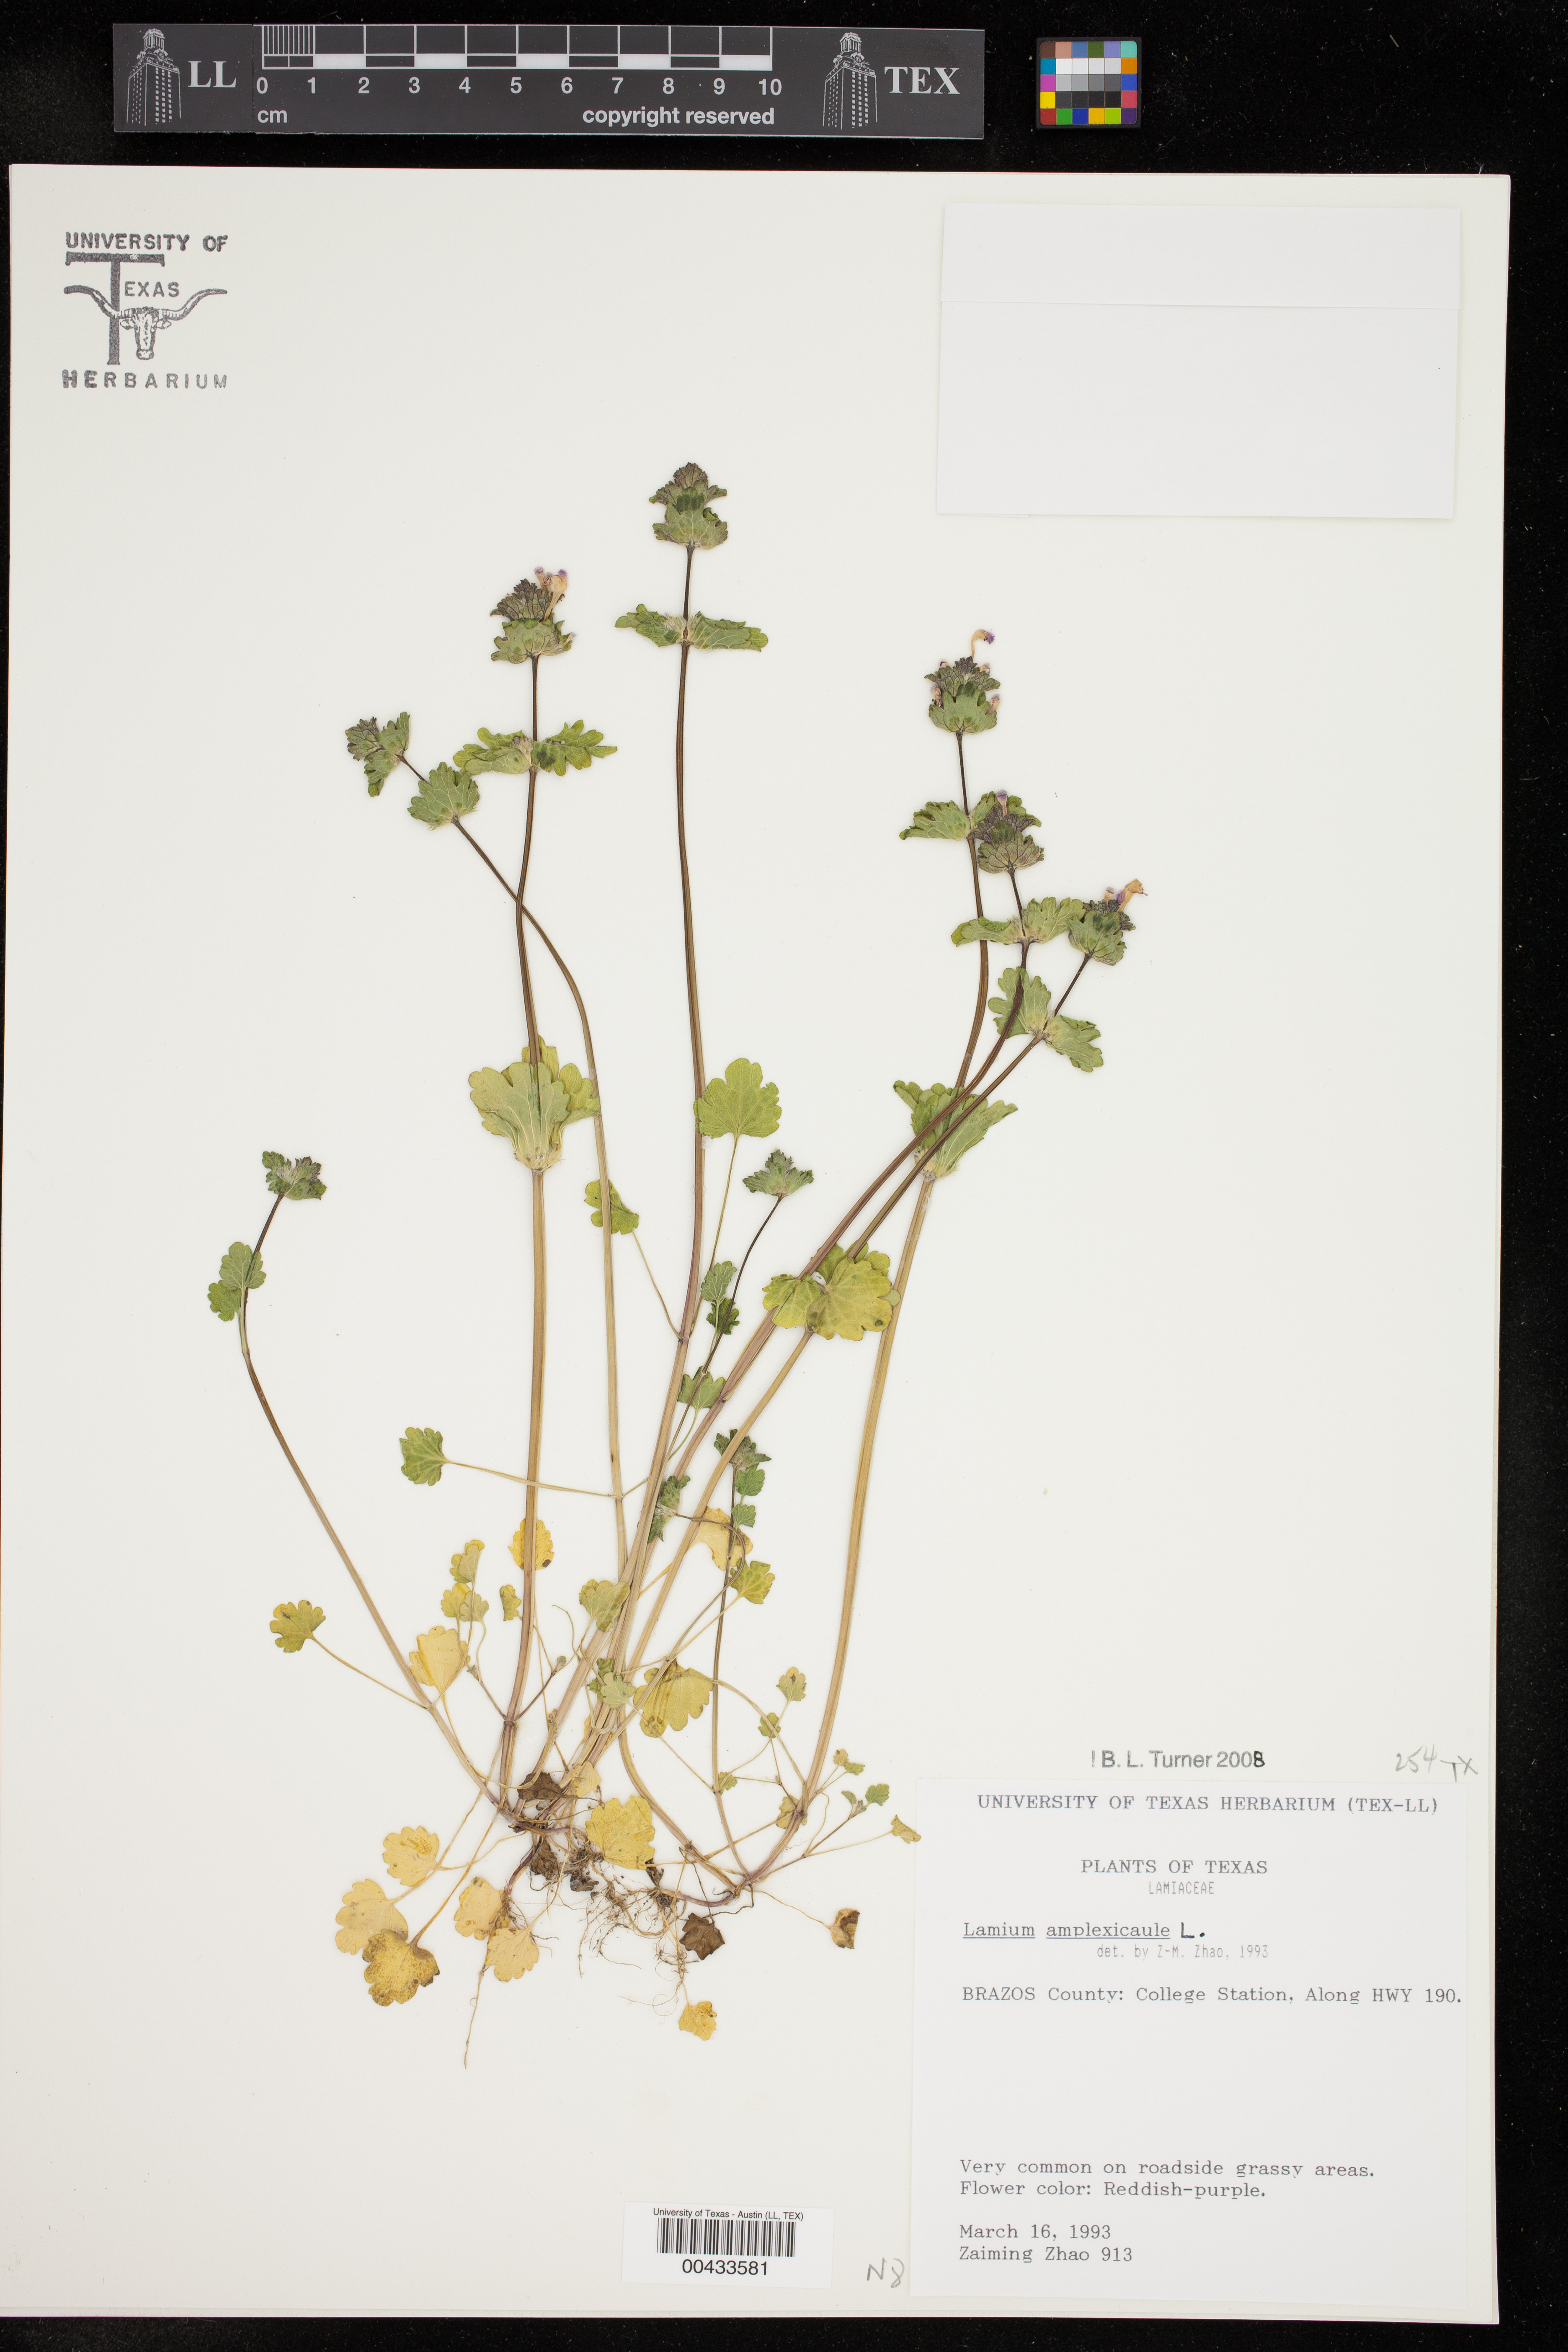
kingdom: Plantae
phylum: Tracheophyta
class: Magnoliopsida
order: Lamiales
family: Lamiaceae
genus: Lamium
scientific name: Lamium amplexicaule
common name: Henbit dead-nettle
